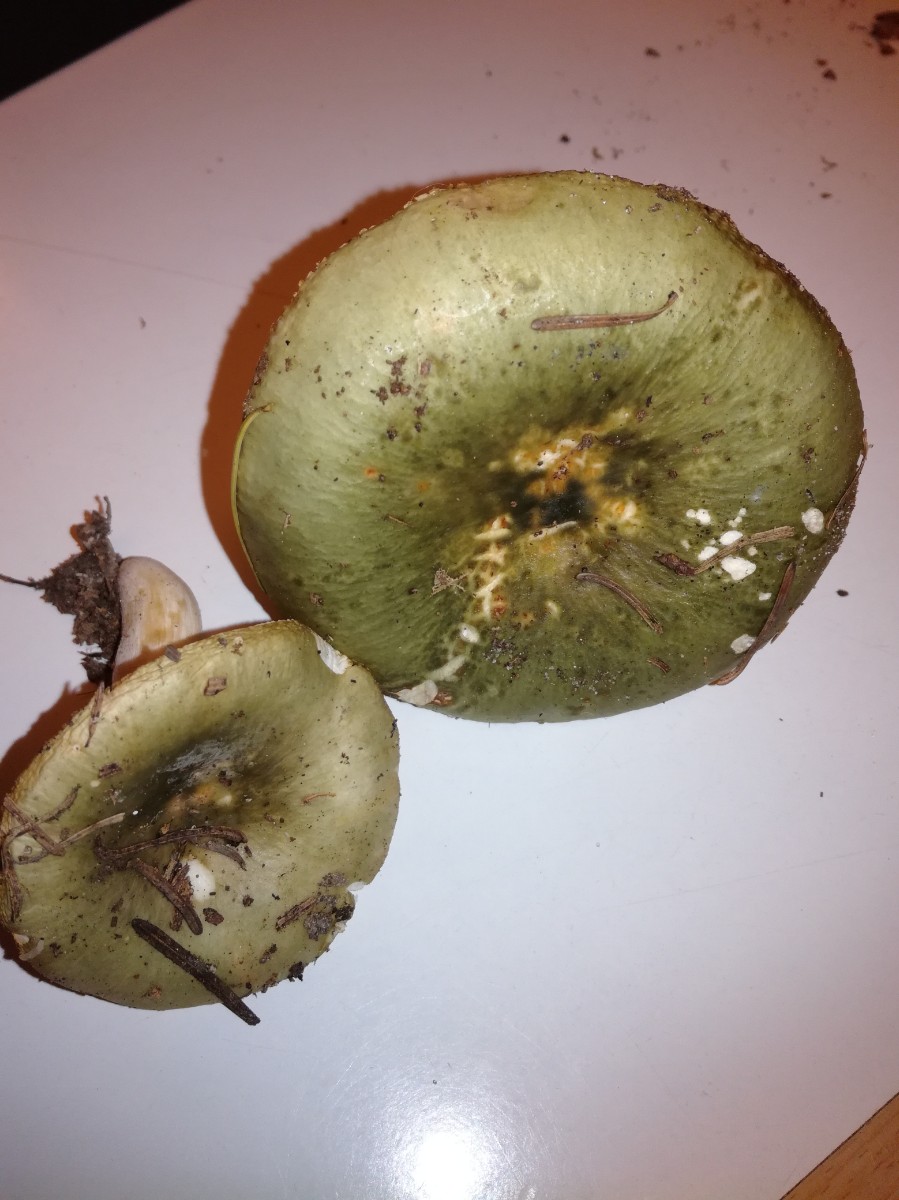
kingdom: Fungi
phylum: Basidiomycota
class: Agaricomycetes
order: Russulales
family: Russulaceae
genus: Russula
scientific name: Russula aeruginea
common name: græsgrøn skørhat
